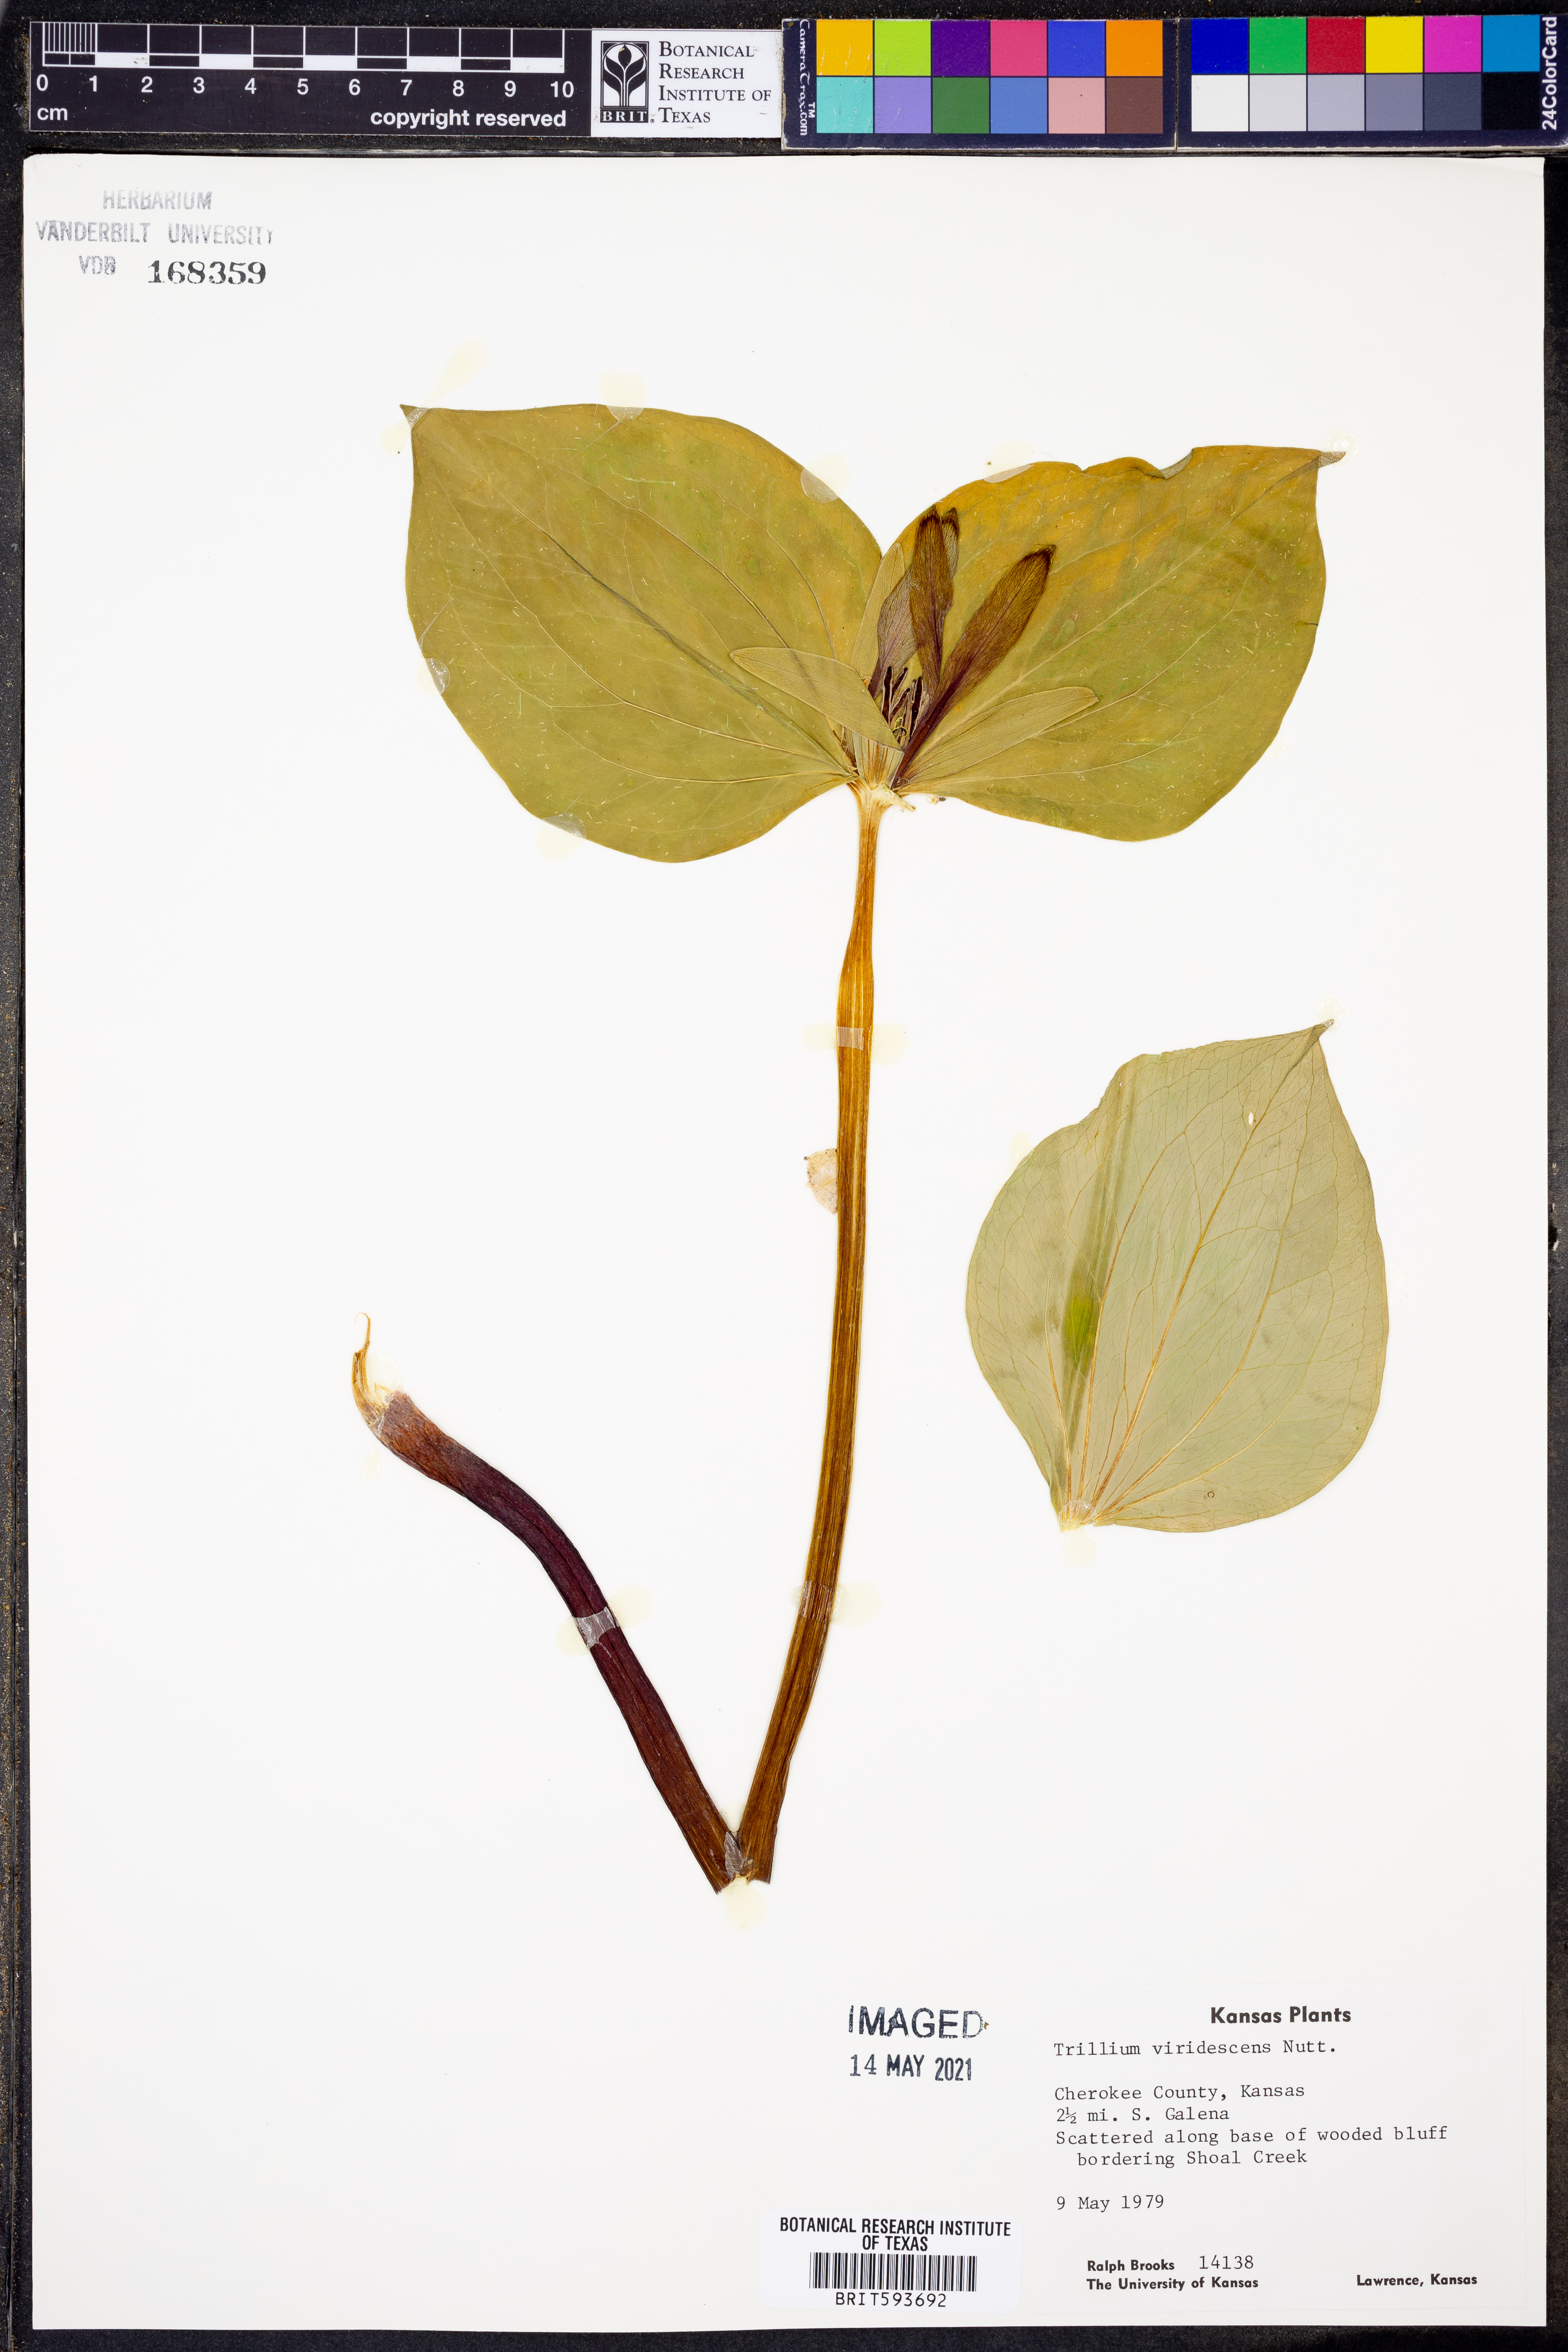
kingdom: Plantae
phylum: Tracheophyta
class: Liliopsida
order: Liliales
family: Melanthiaceae
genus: Trillium
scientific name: Trillium viridescens
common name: Ozark green trillium
